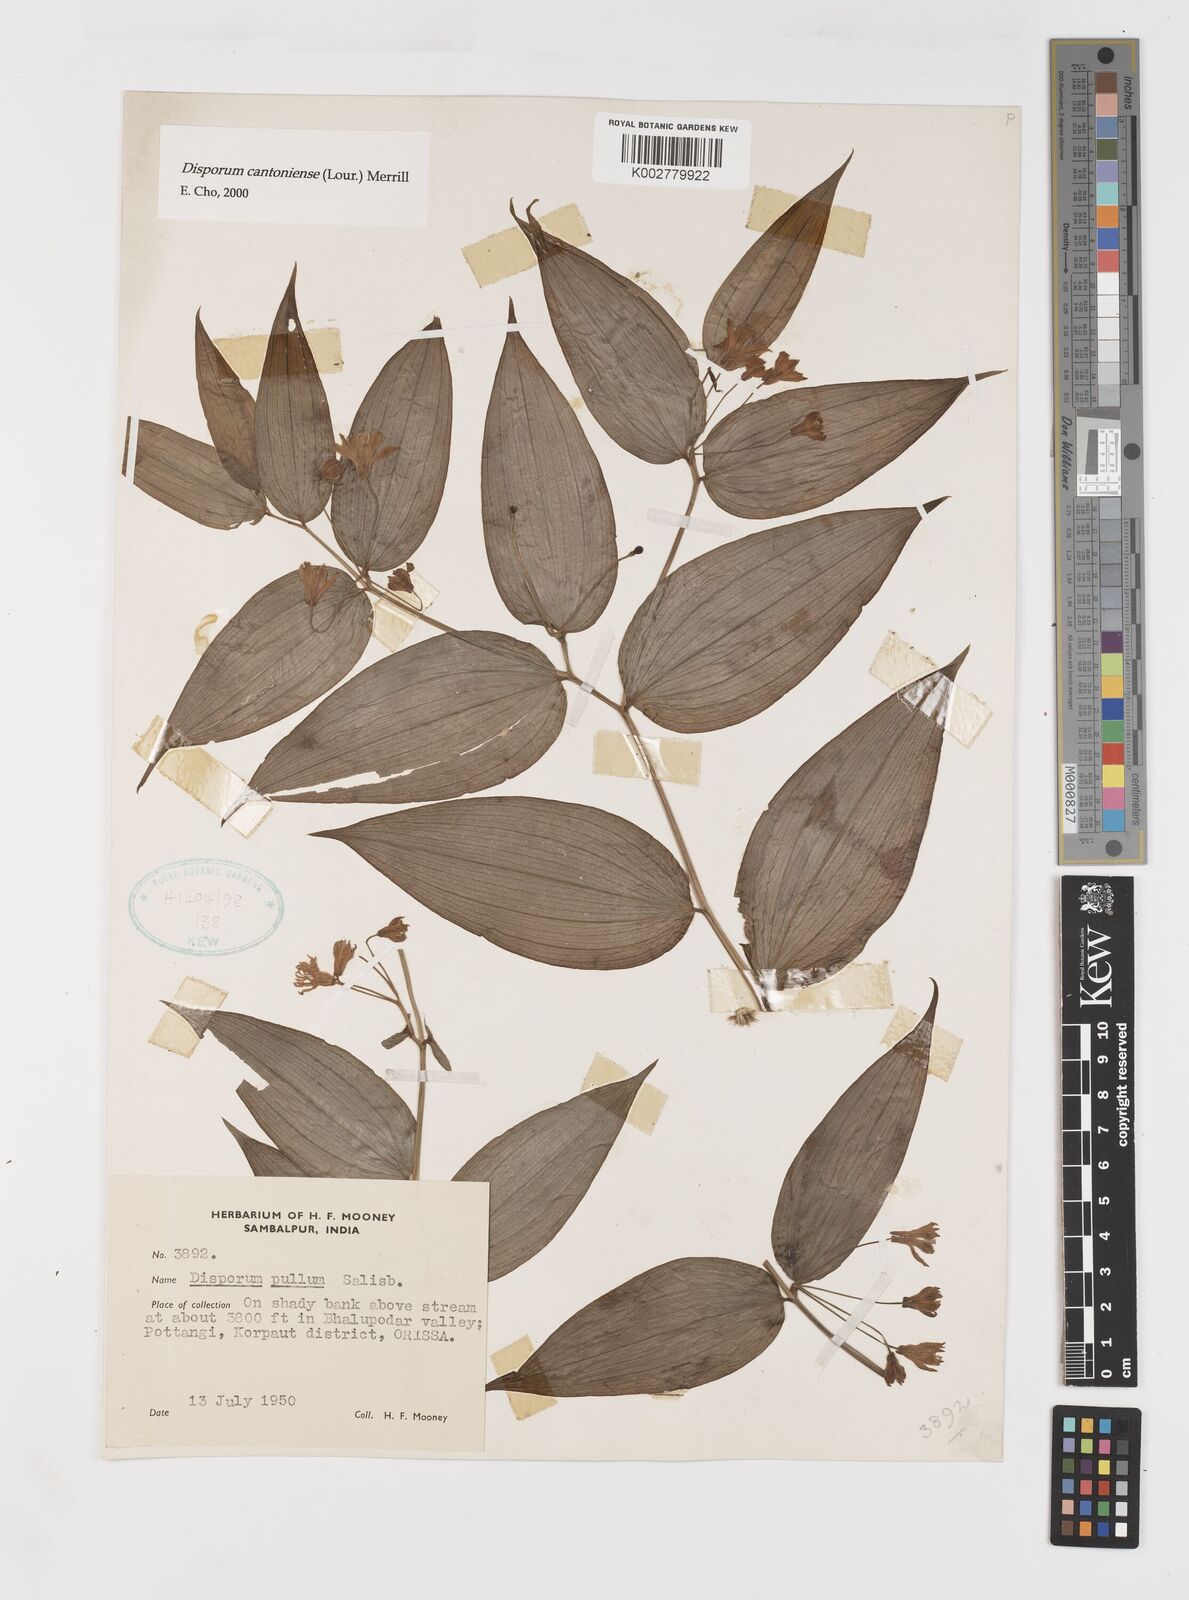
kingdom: Plantae
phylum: Tracheophyta
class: Liliopsida
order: Liliales
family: Colchicaceae
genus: Disporum
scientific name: Disporum cantoniense
